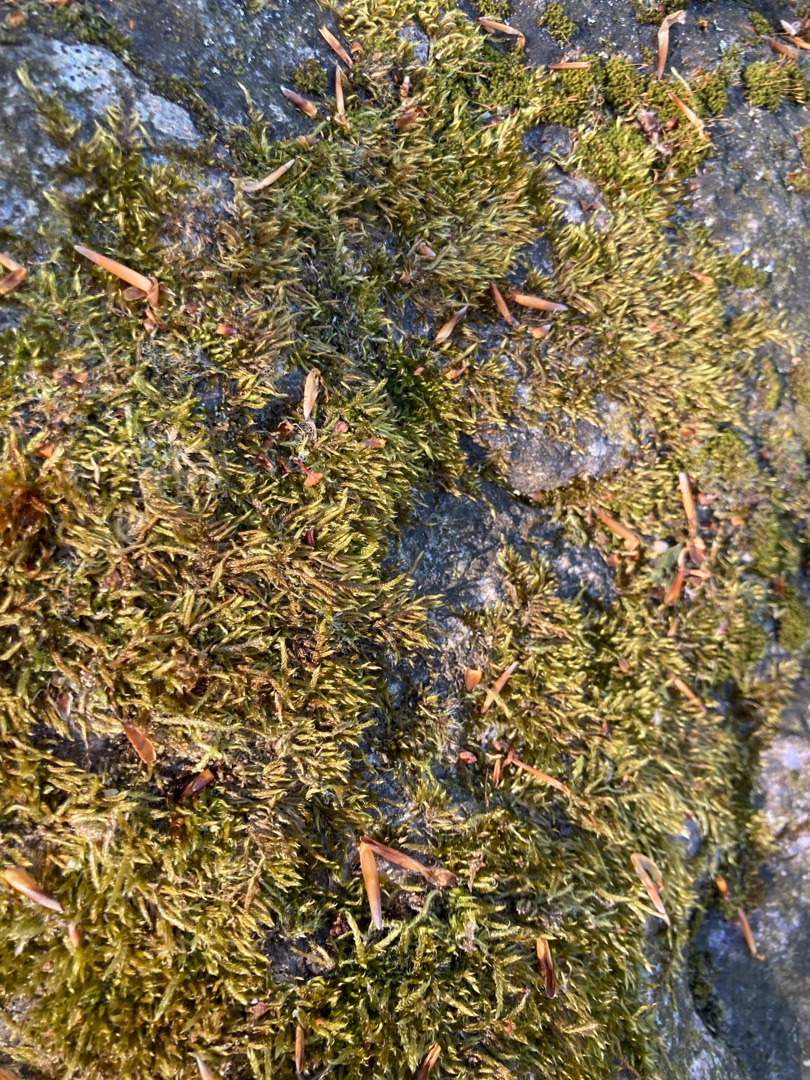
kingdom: Plantae
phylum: Bryophyta
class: Bryopsida
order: Hypnales
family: Hypnaceae
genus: Hypnum
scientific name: Hypnum cupressiforme
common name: Almindelig cypresmos
